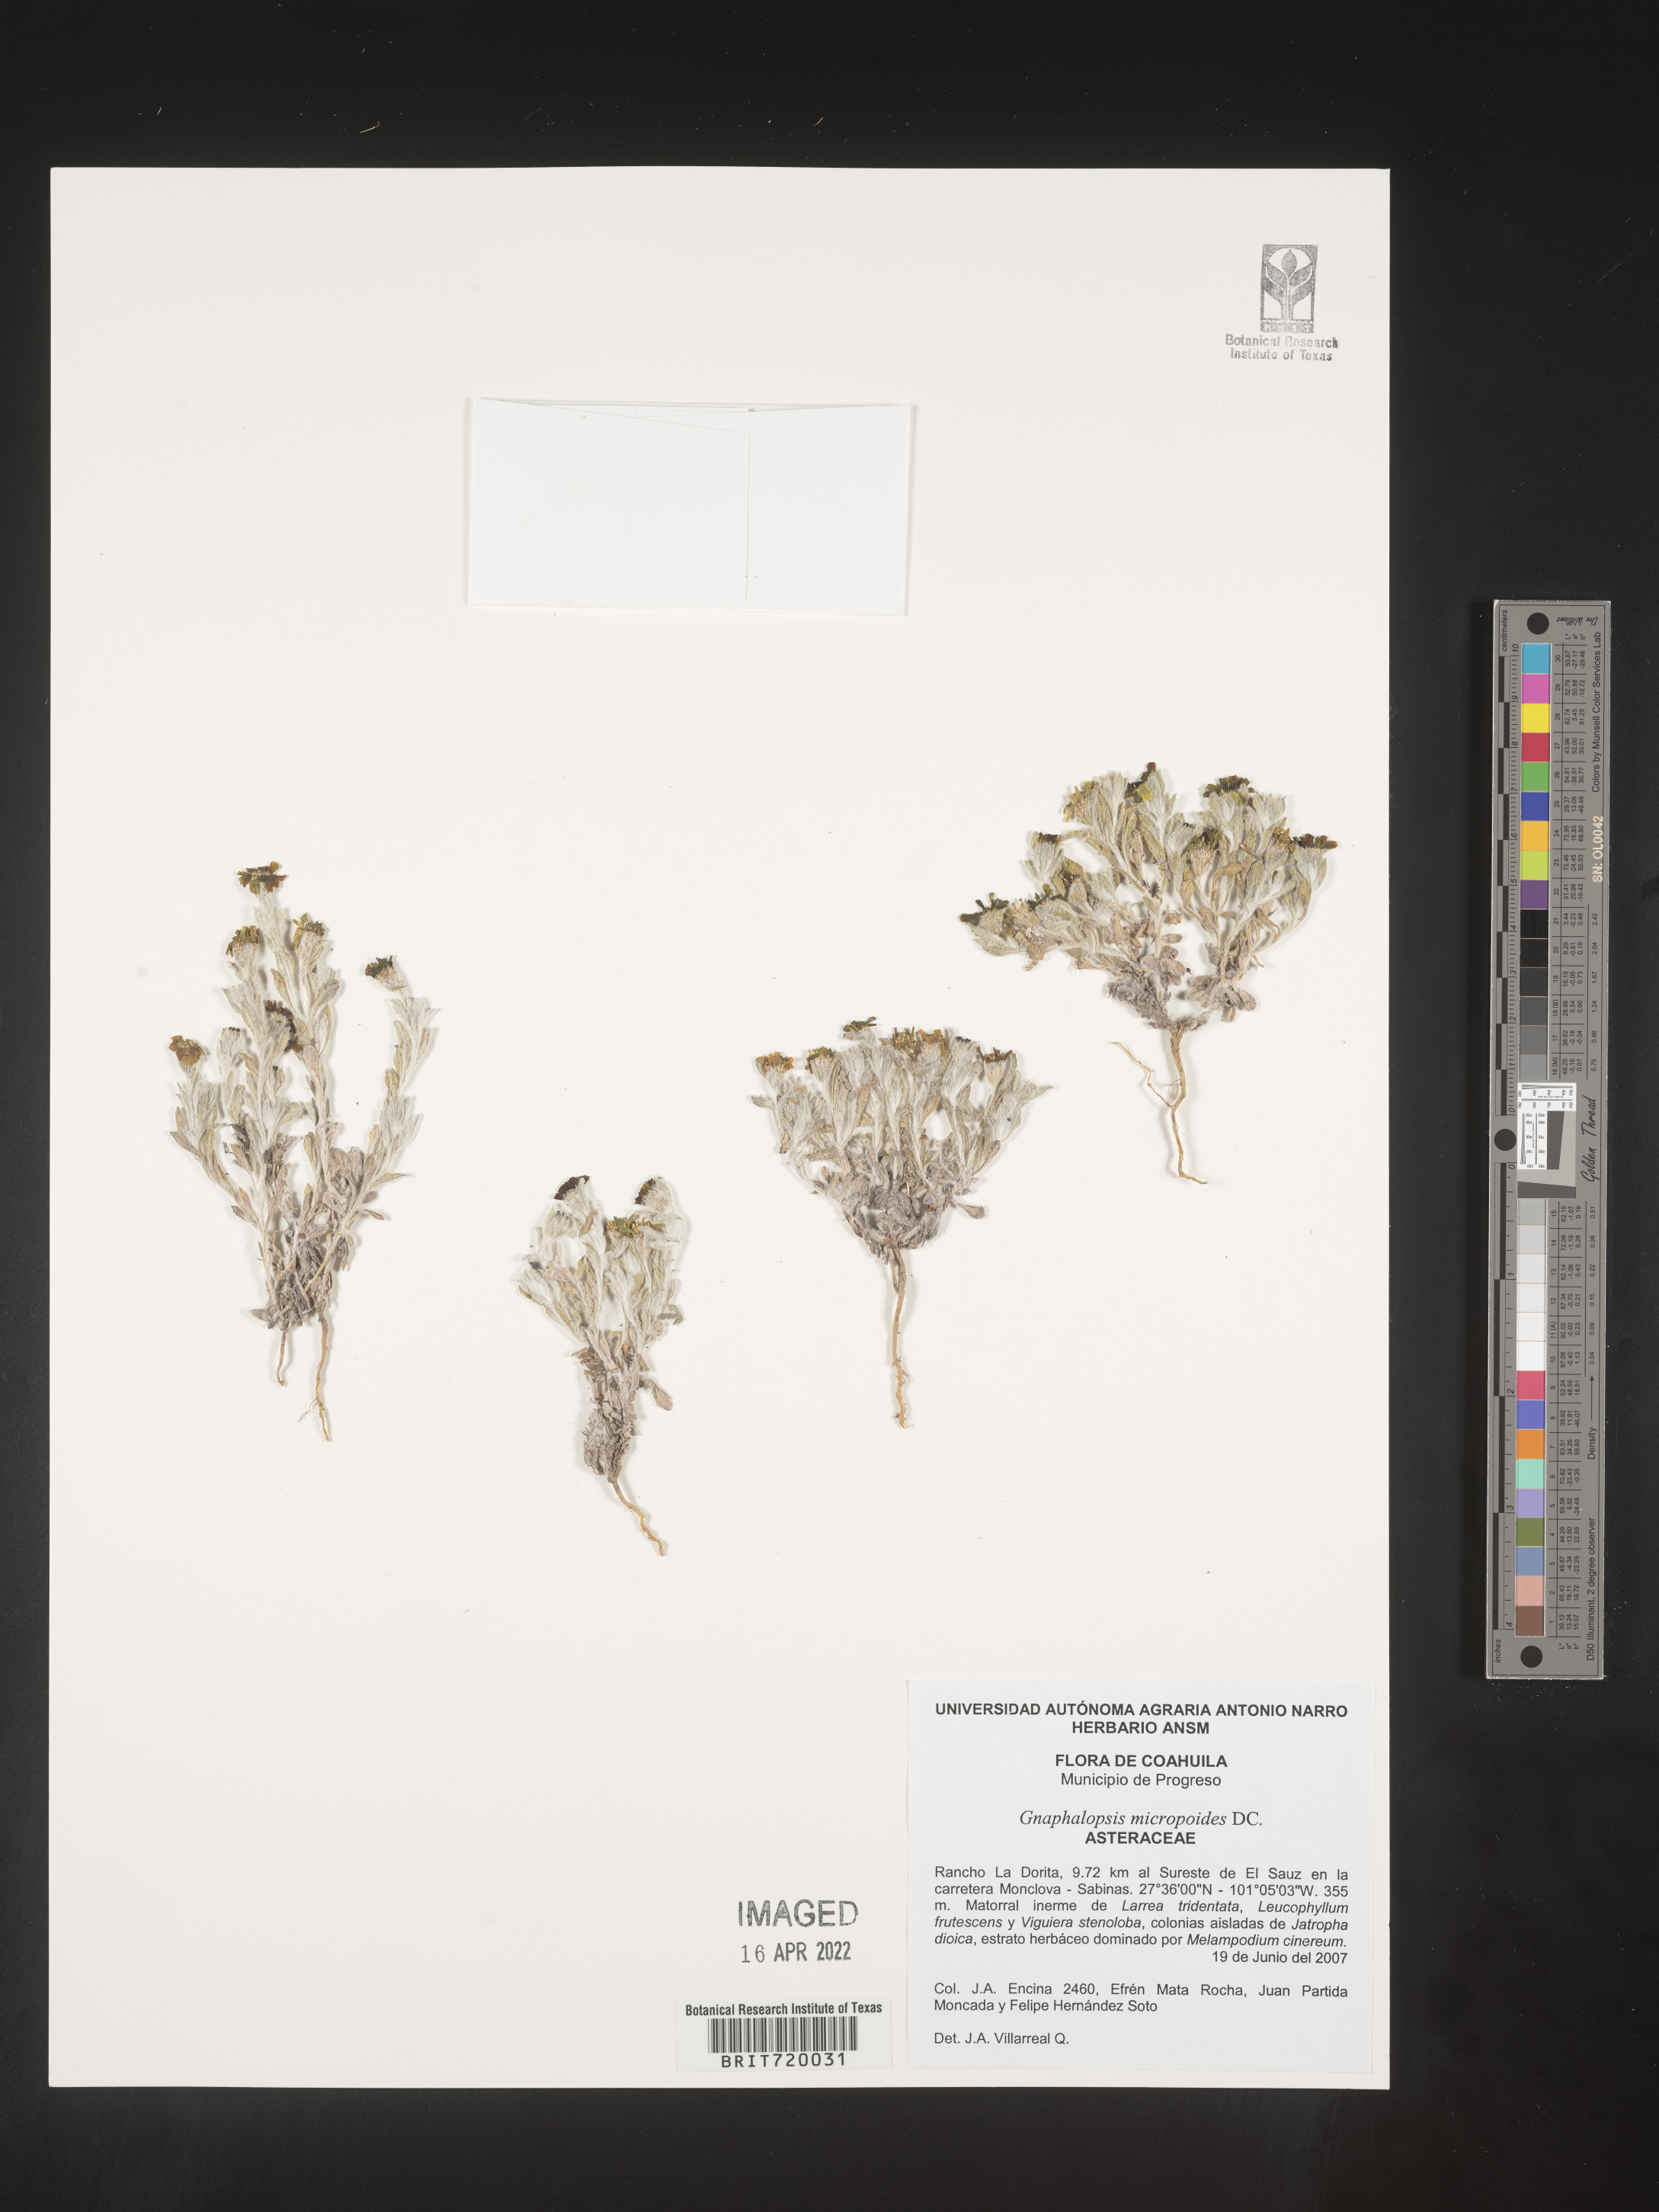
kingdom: Plantae
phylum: Tracheophyta
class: Magnoliopsida
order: Asterales
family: Asteraceae
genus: Thymophylla
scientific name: Thymophylla micropoides
